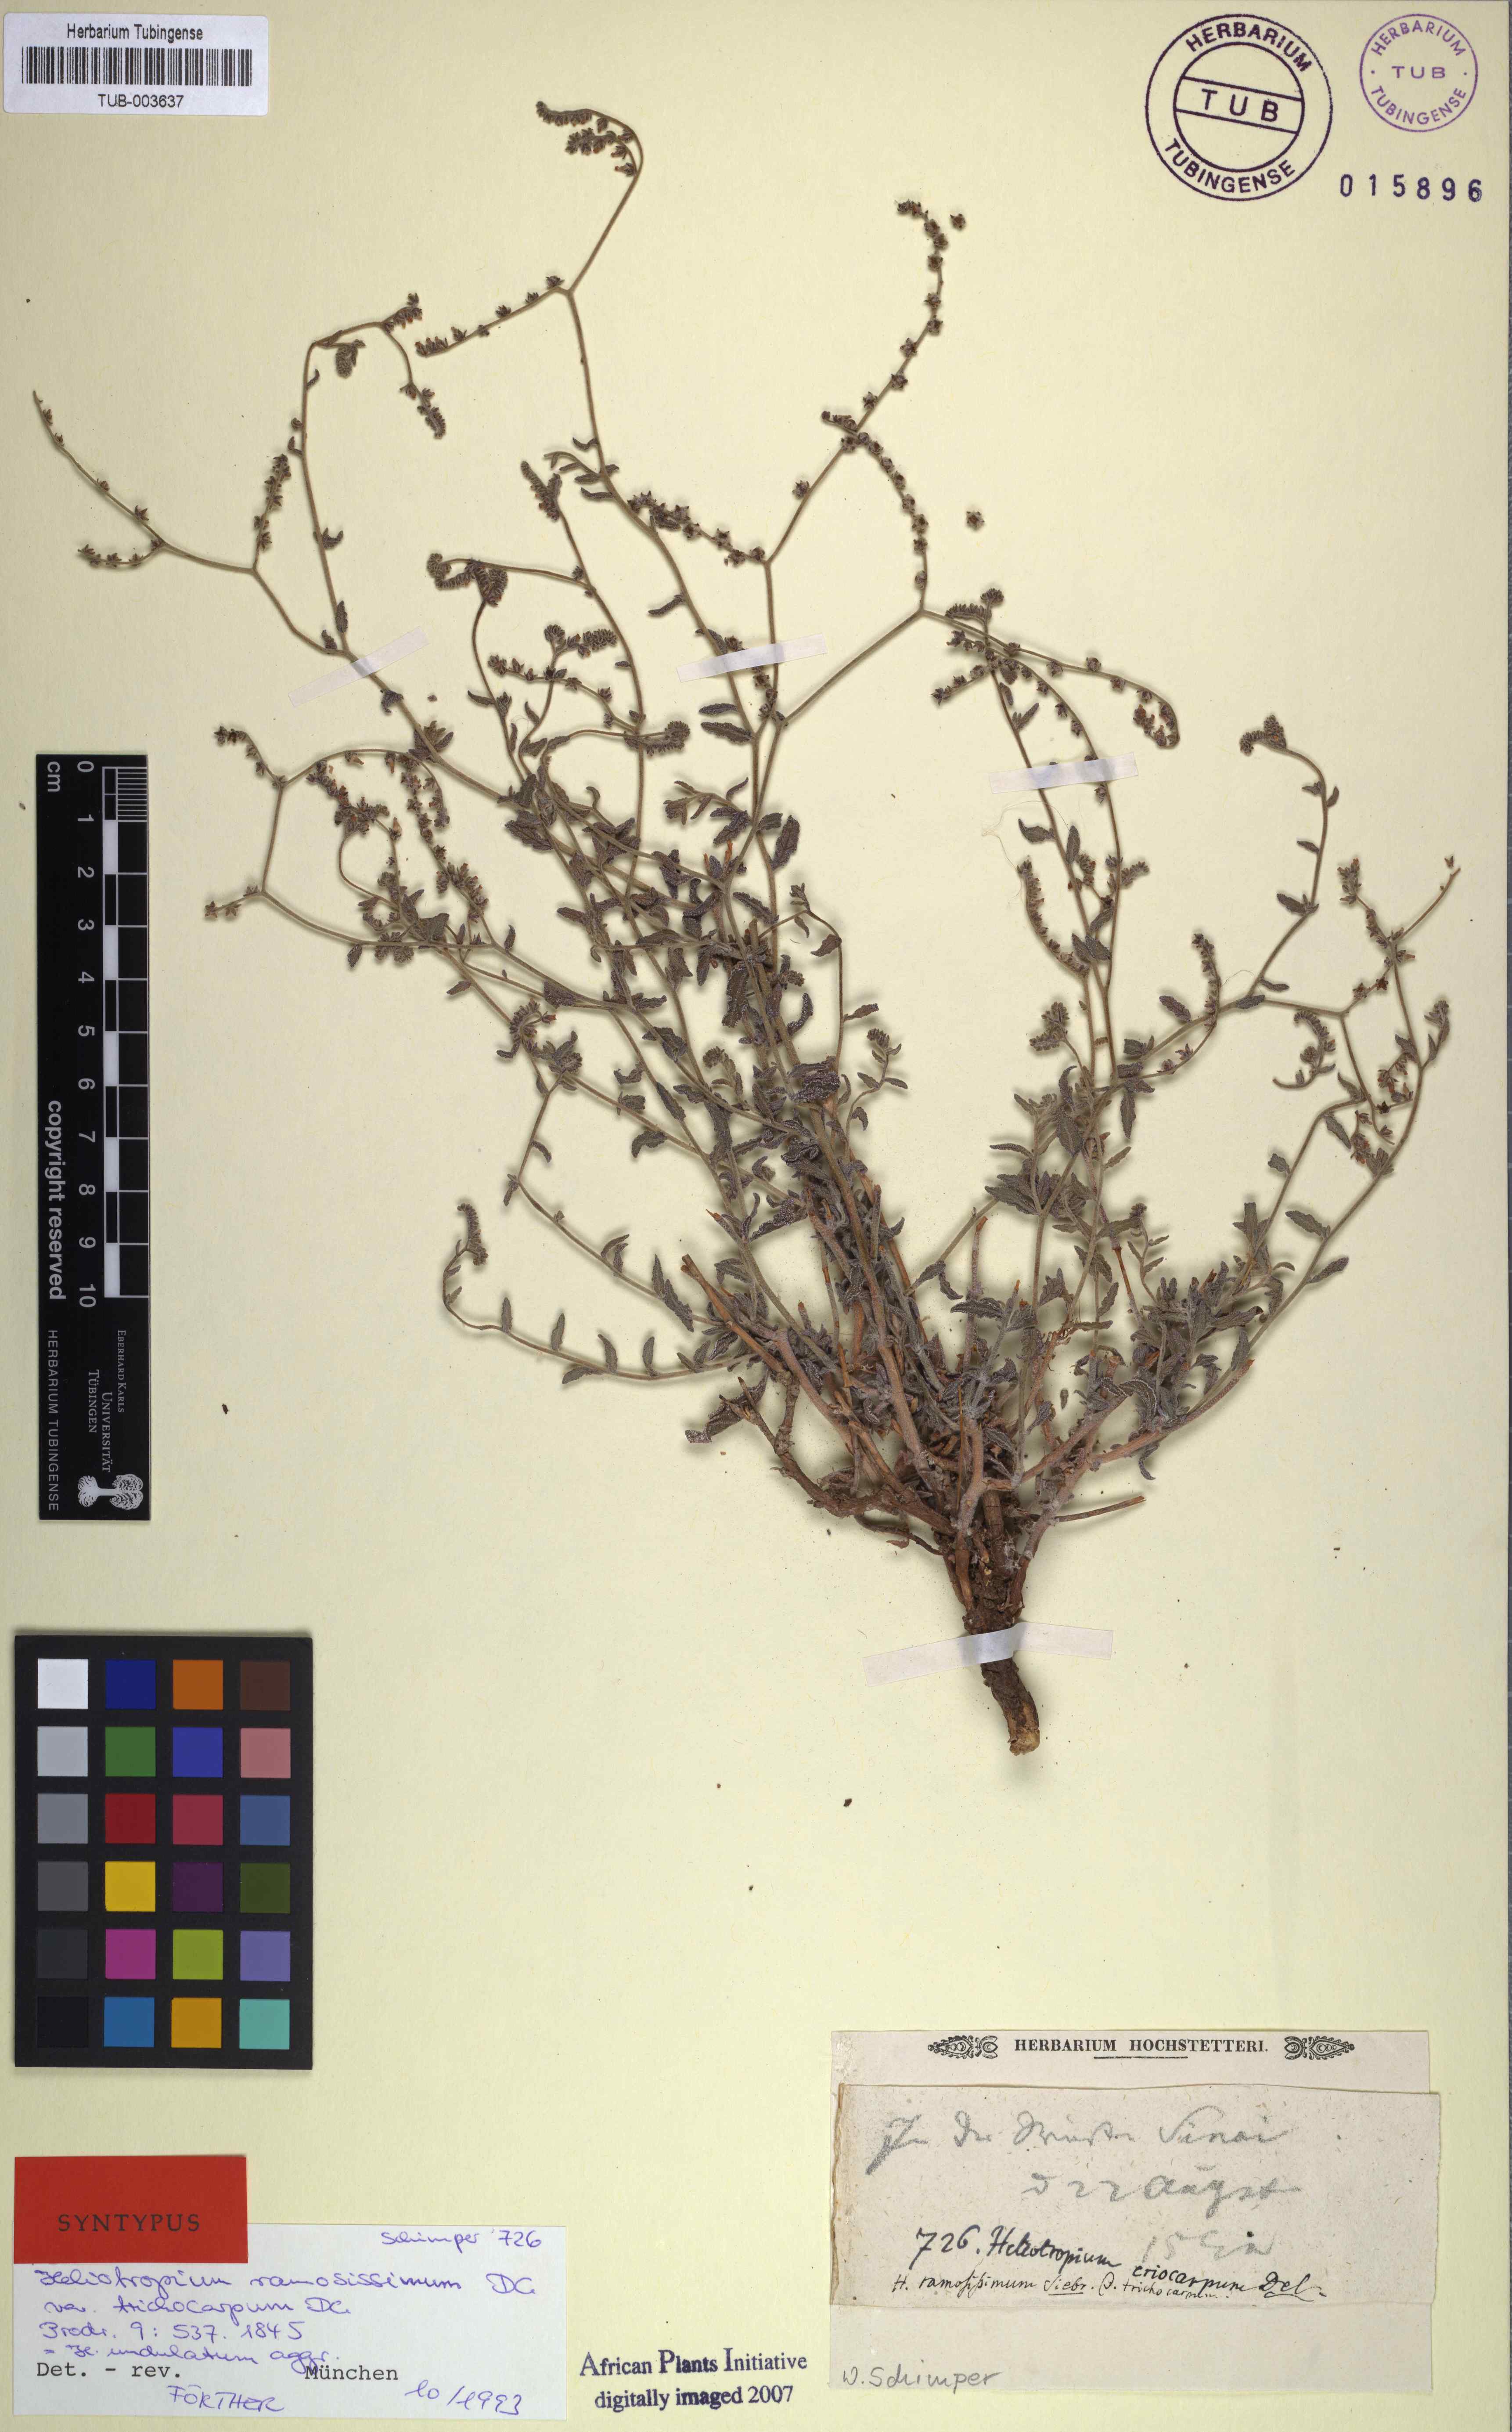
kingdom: Plantae
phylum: Tracheophyta
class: Magnoliopsida
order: Boraginales
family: Heliotropiaceae
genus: Heliotropium
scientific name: Heliotropium
